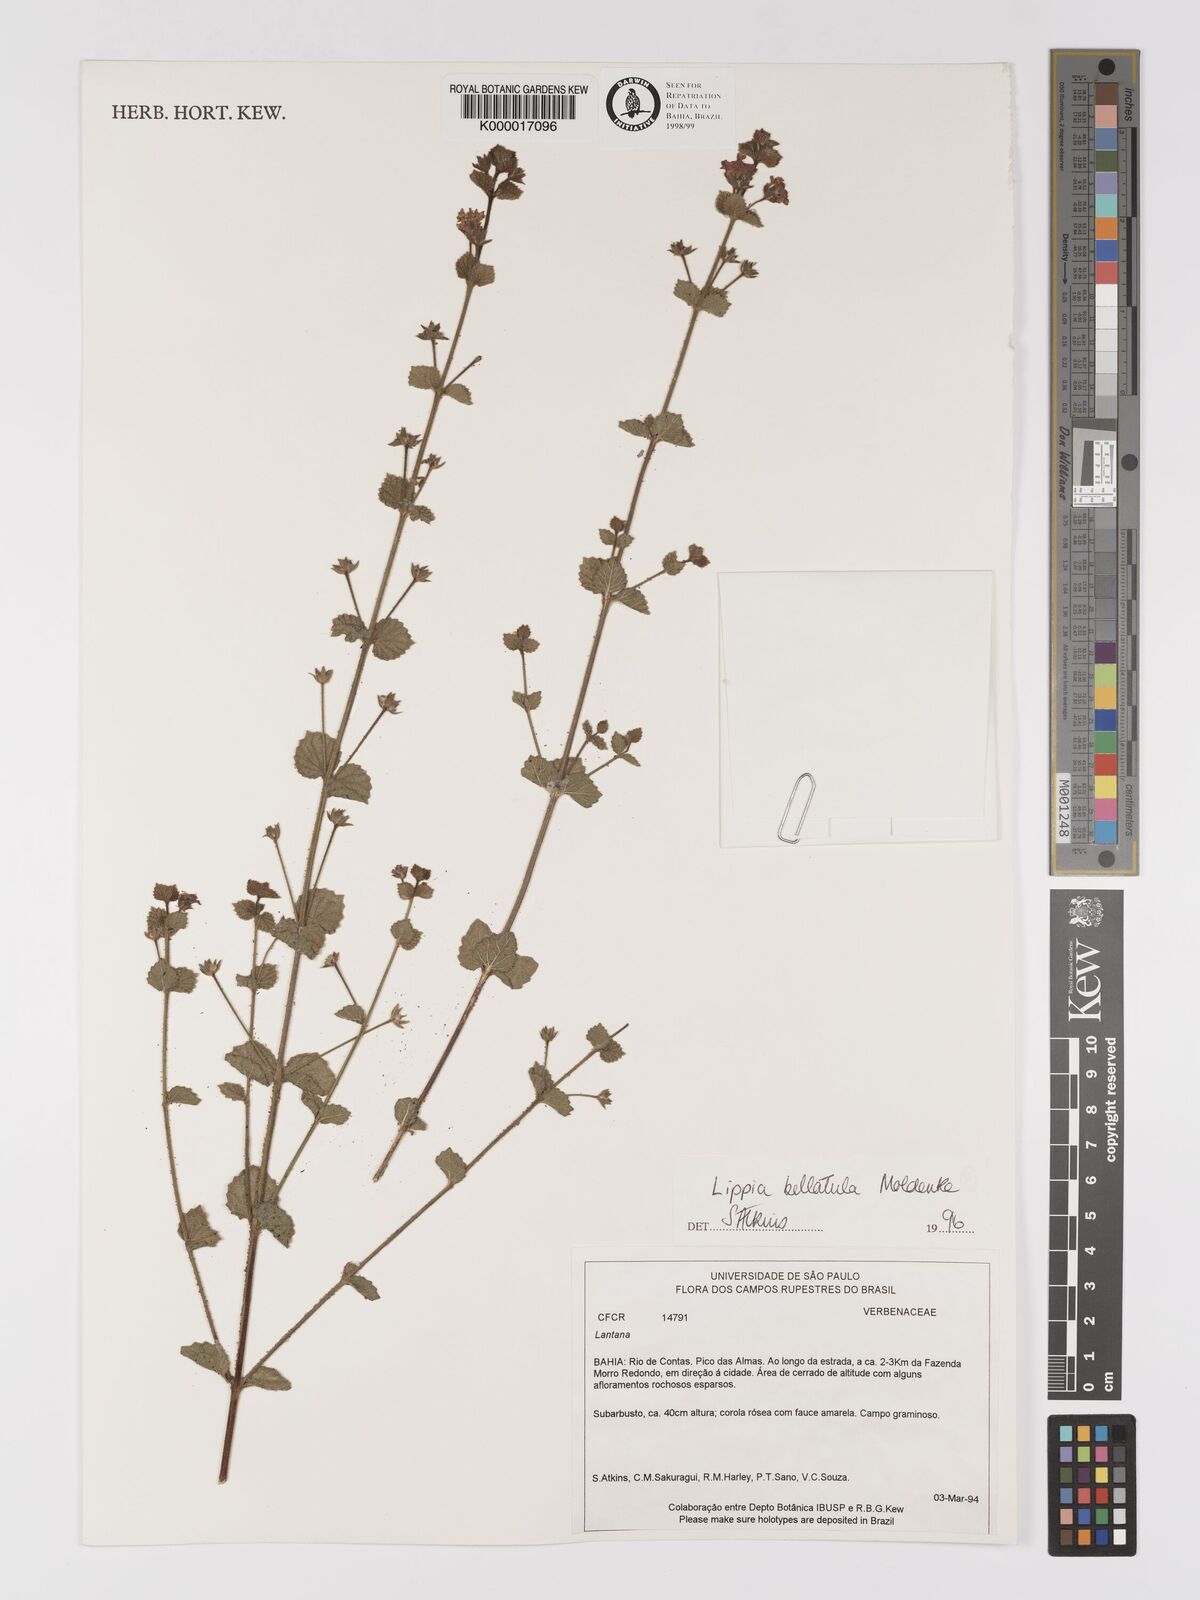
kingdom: Plantae
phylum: Tracheophyta
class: Magnoliopsida
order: Lamiales
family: Verbenaceae
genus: Lippia
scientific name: Lippia bellatula
